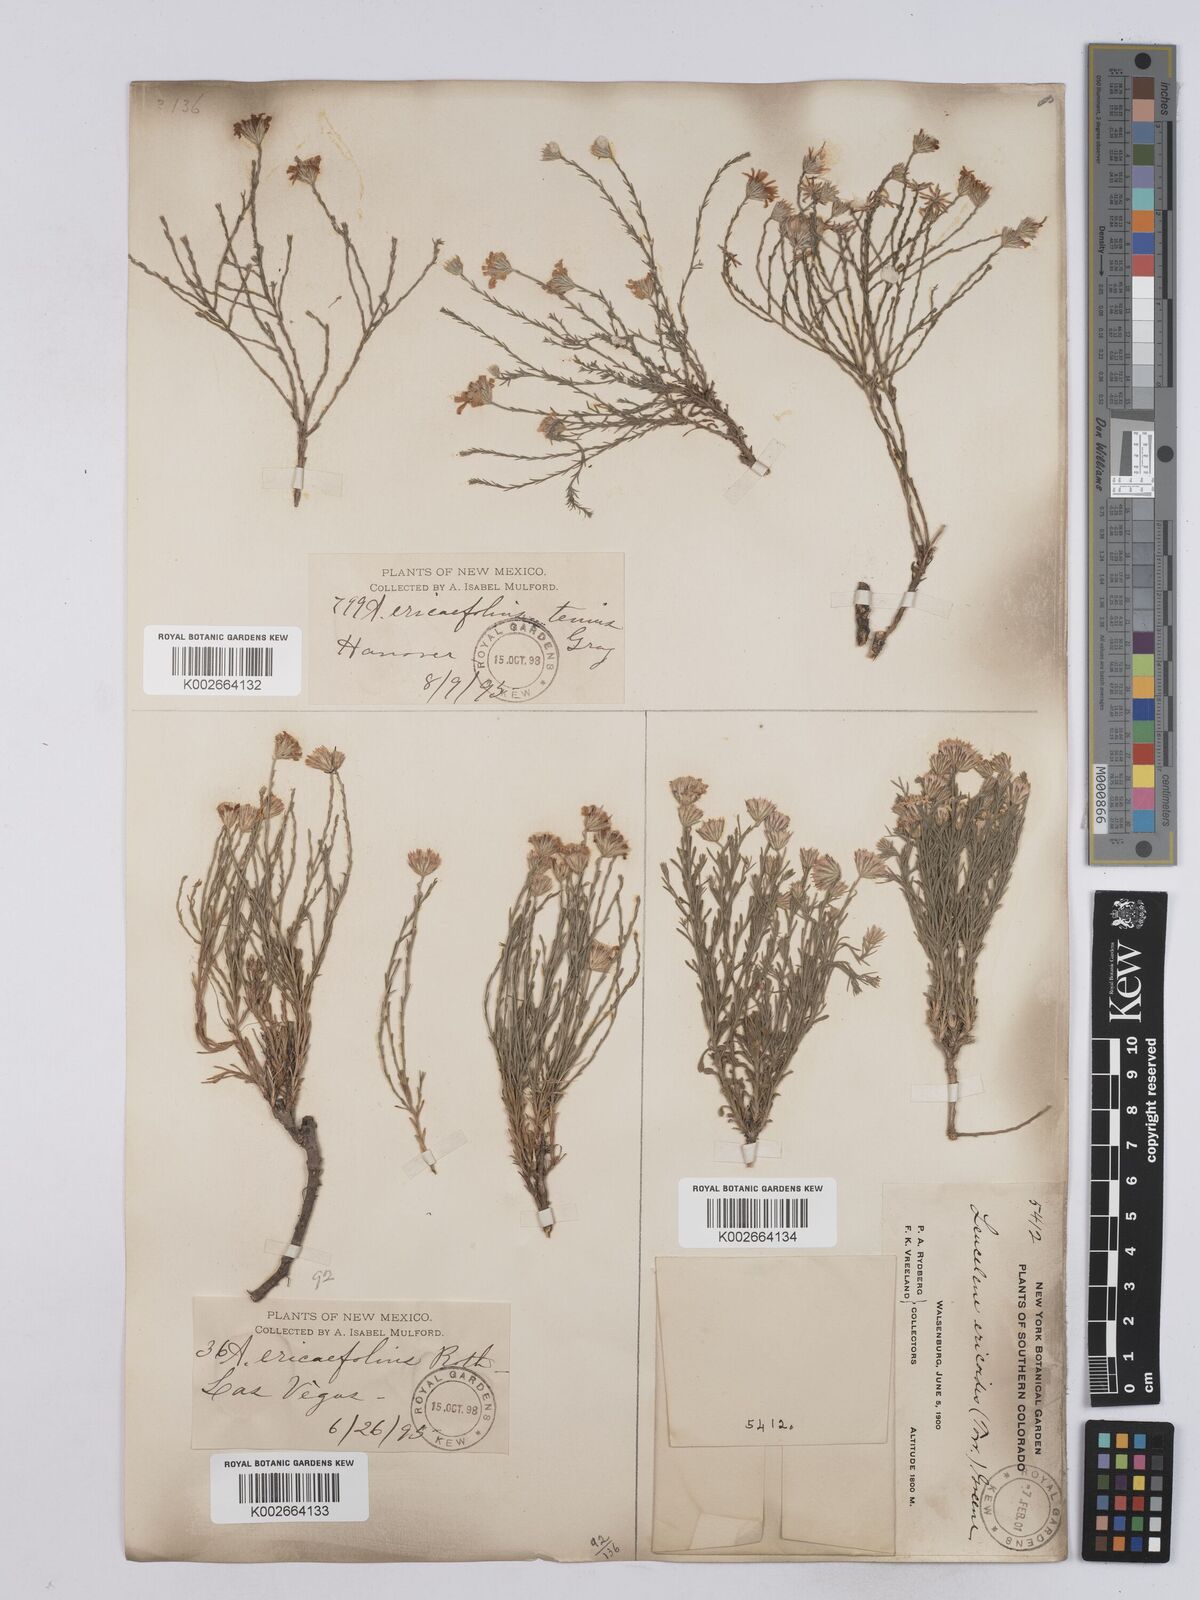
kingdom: Plantae
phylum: Tracheophyta
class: Magnoliopsida
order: Asterales
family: Asteraceae
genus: Chaetopappa
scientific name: Chaetopappa ericoides
